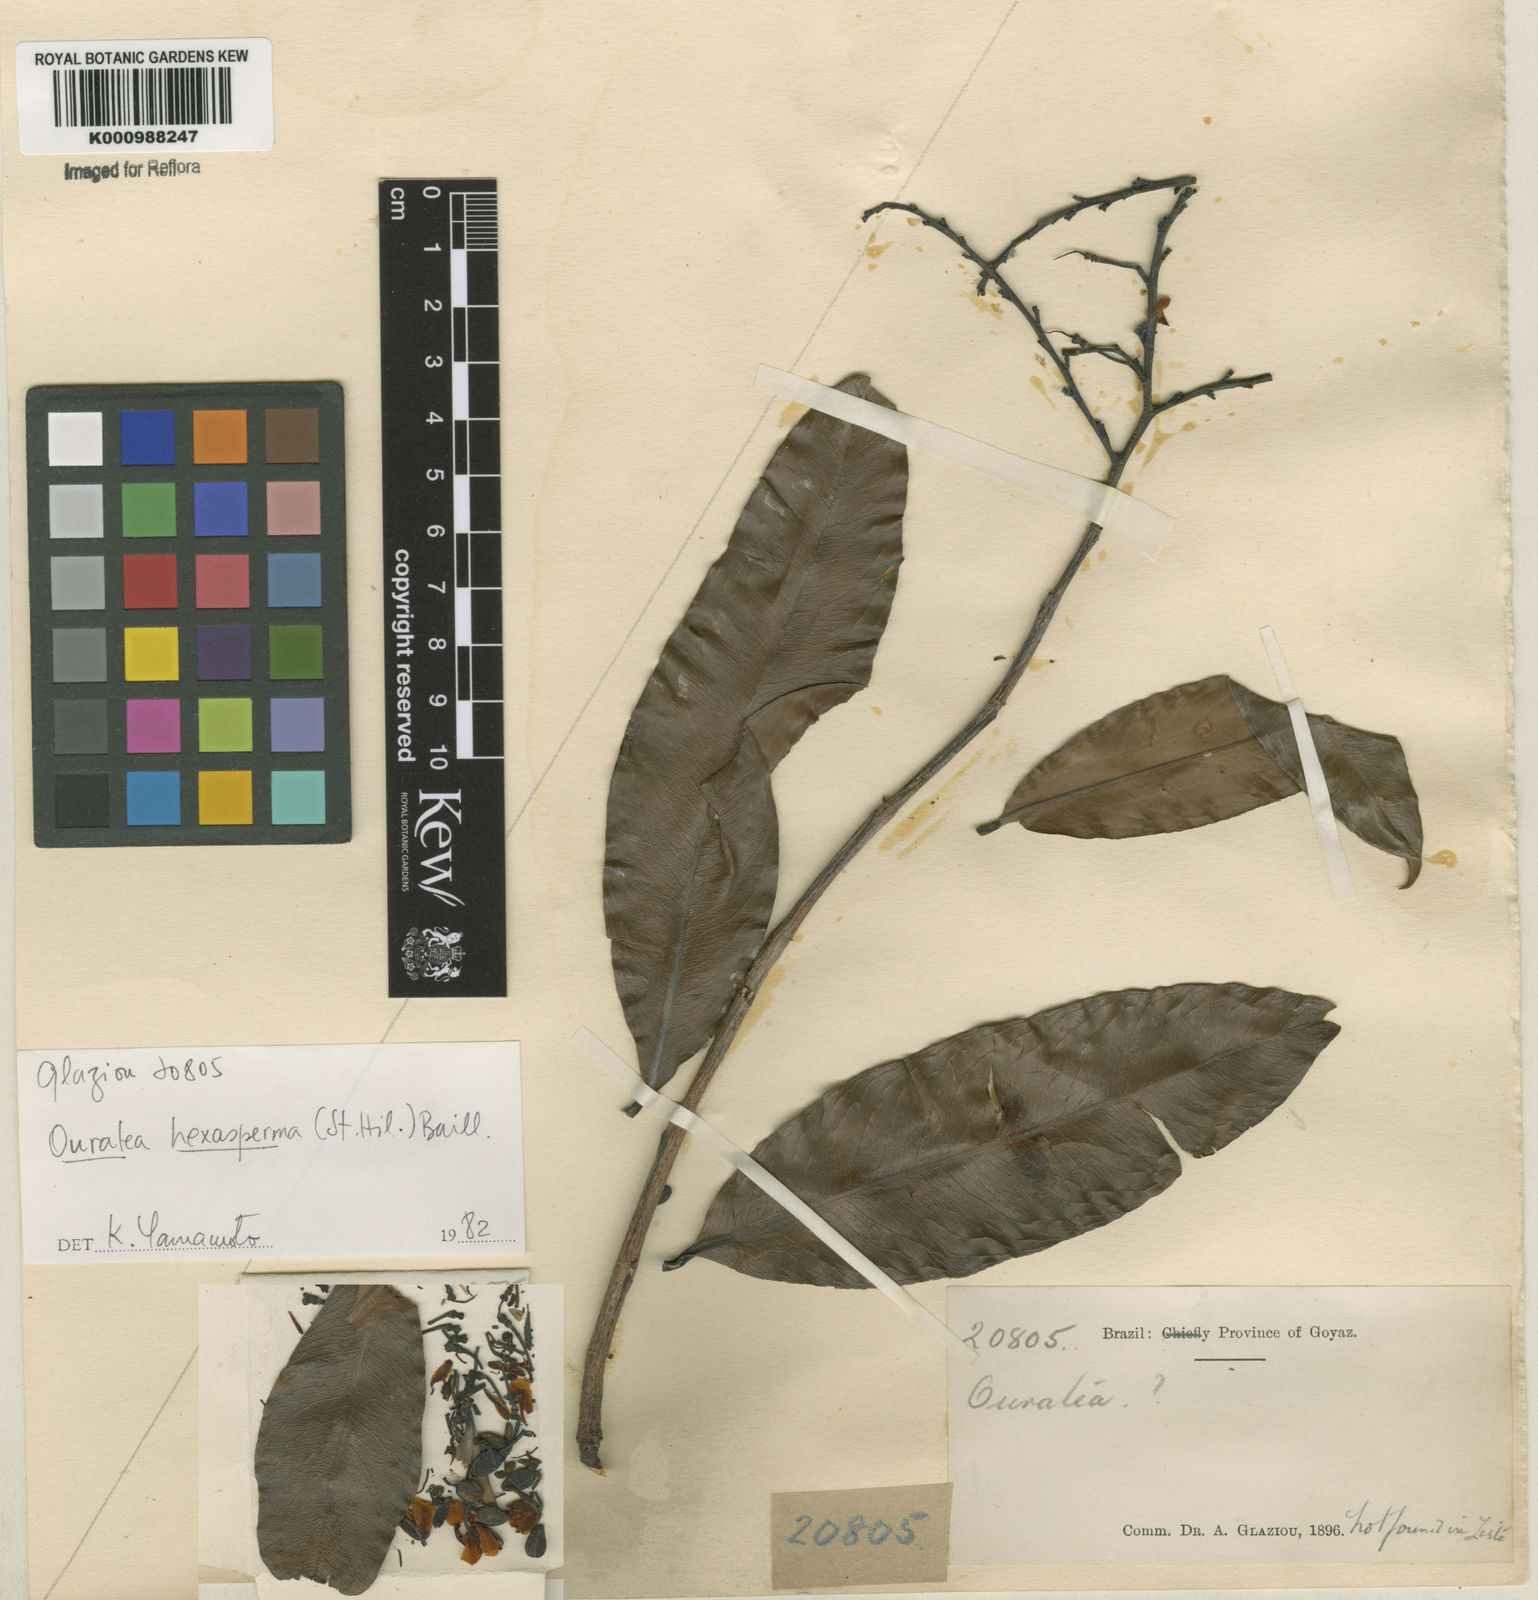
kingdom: Plantae
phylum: Tracheophyta
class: Magnoliopsida
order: Malpighiales
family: Ochnaceae
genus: Ouratea
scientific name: Ouratea hexasperma
